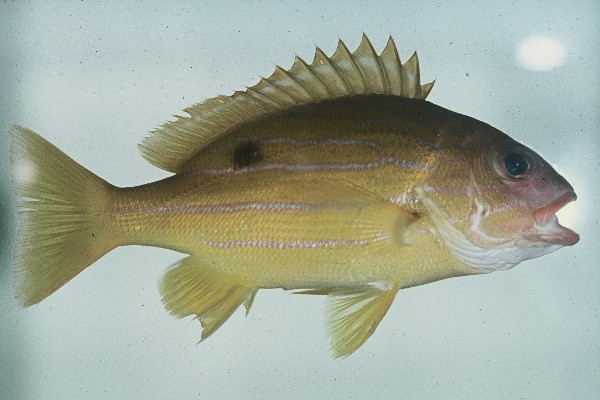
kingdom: Animalia
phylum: Chordata
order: Perciformes
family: Lutjanidae
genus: Lutjanus
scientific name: Lutjanus notatus
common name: Bluestriped snapper
